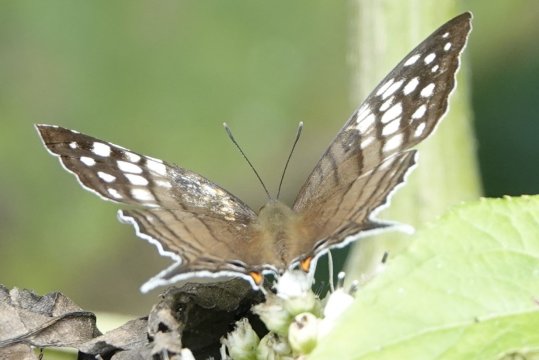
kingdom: Animalia
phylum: Arthropoda
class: Insecta
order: Lepidoptera
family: Nymphalidae
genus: Marpesia
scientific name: Marpesia merops
